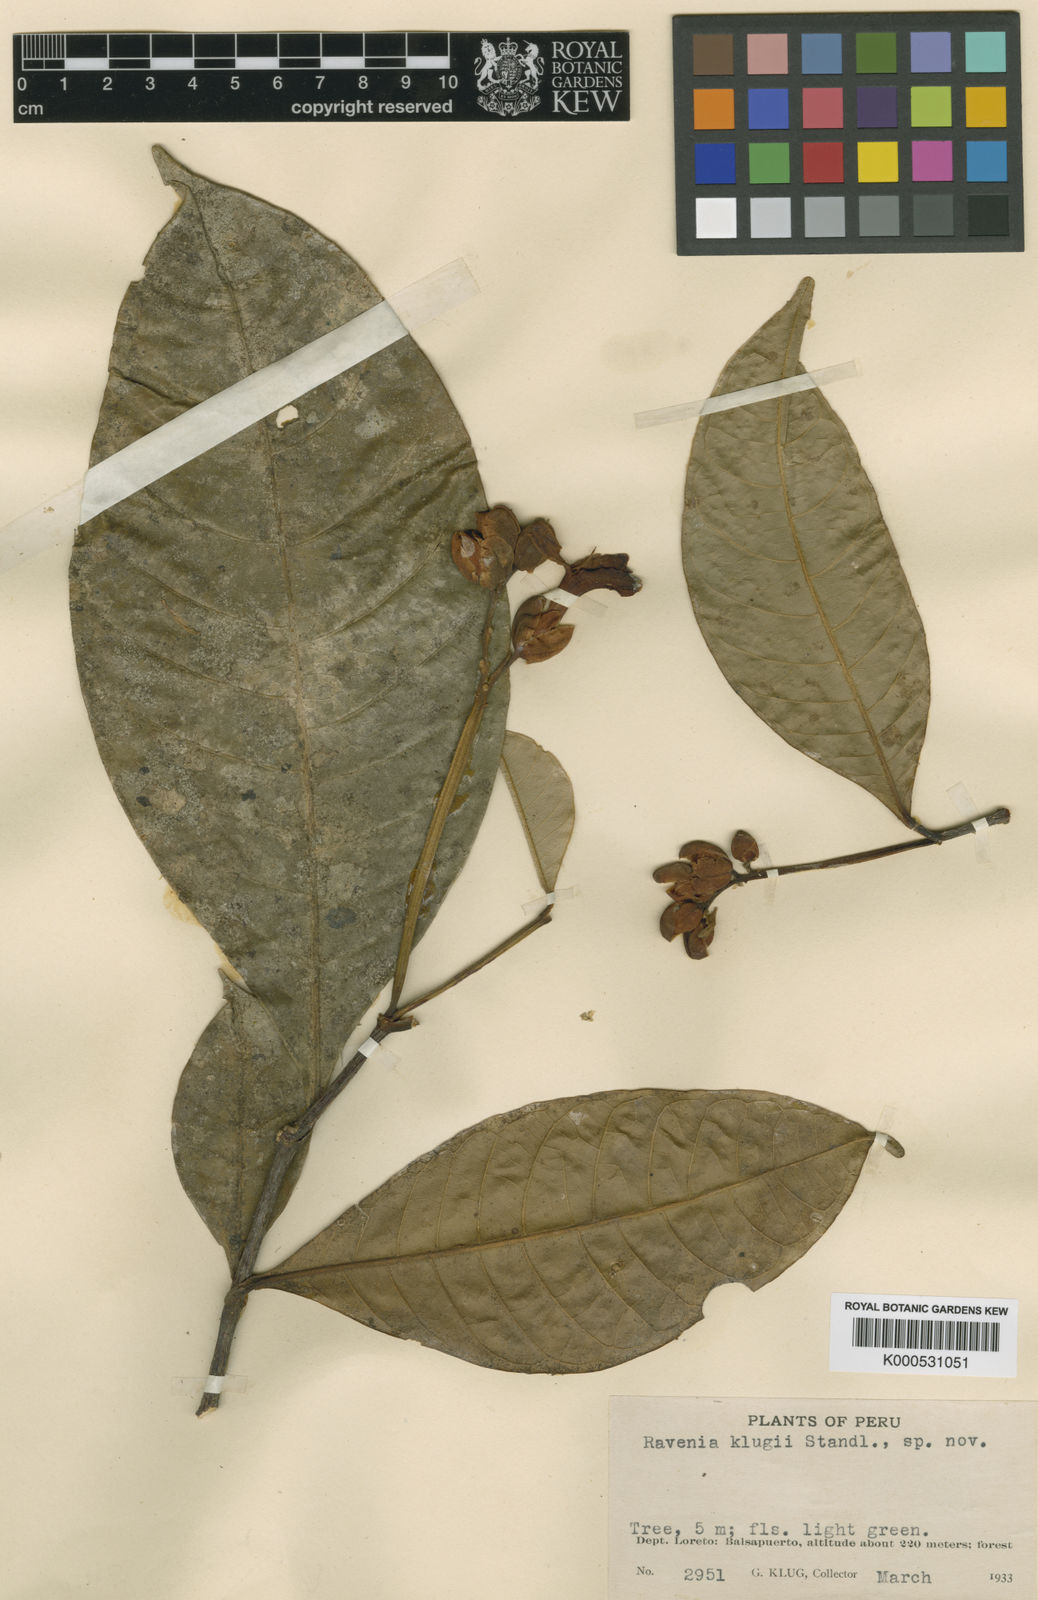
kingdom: Plantae
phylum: Tracheophyta
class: Magnoliopsida
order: Sapindales
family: Rutaceae
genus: Ravenia
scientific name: Ravenia
